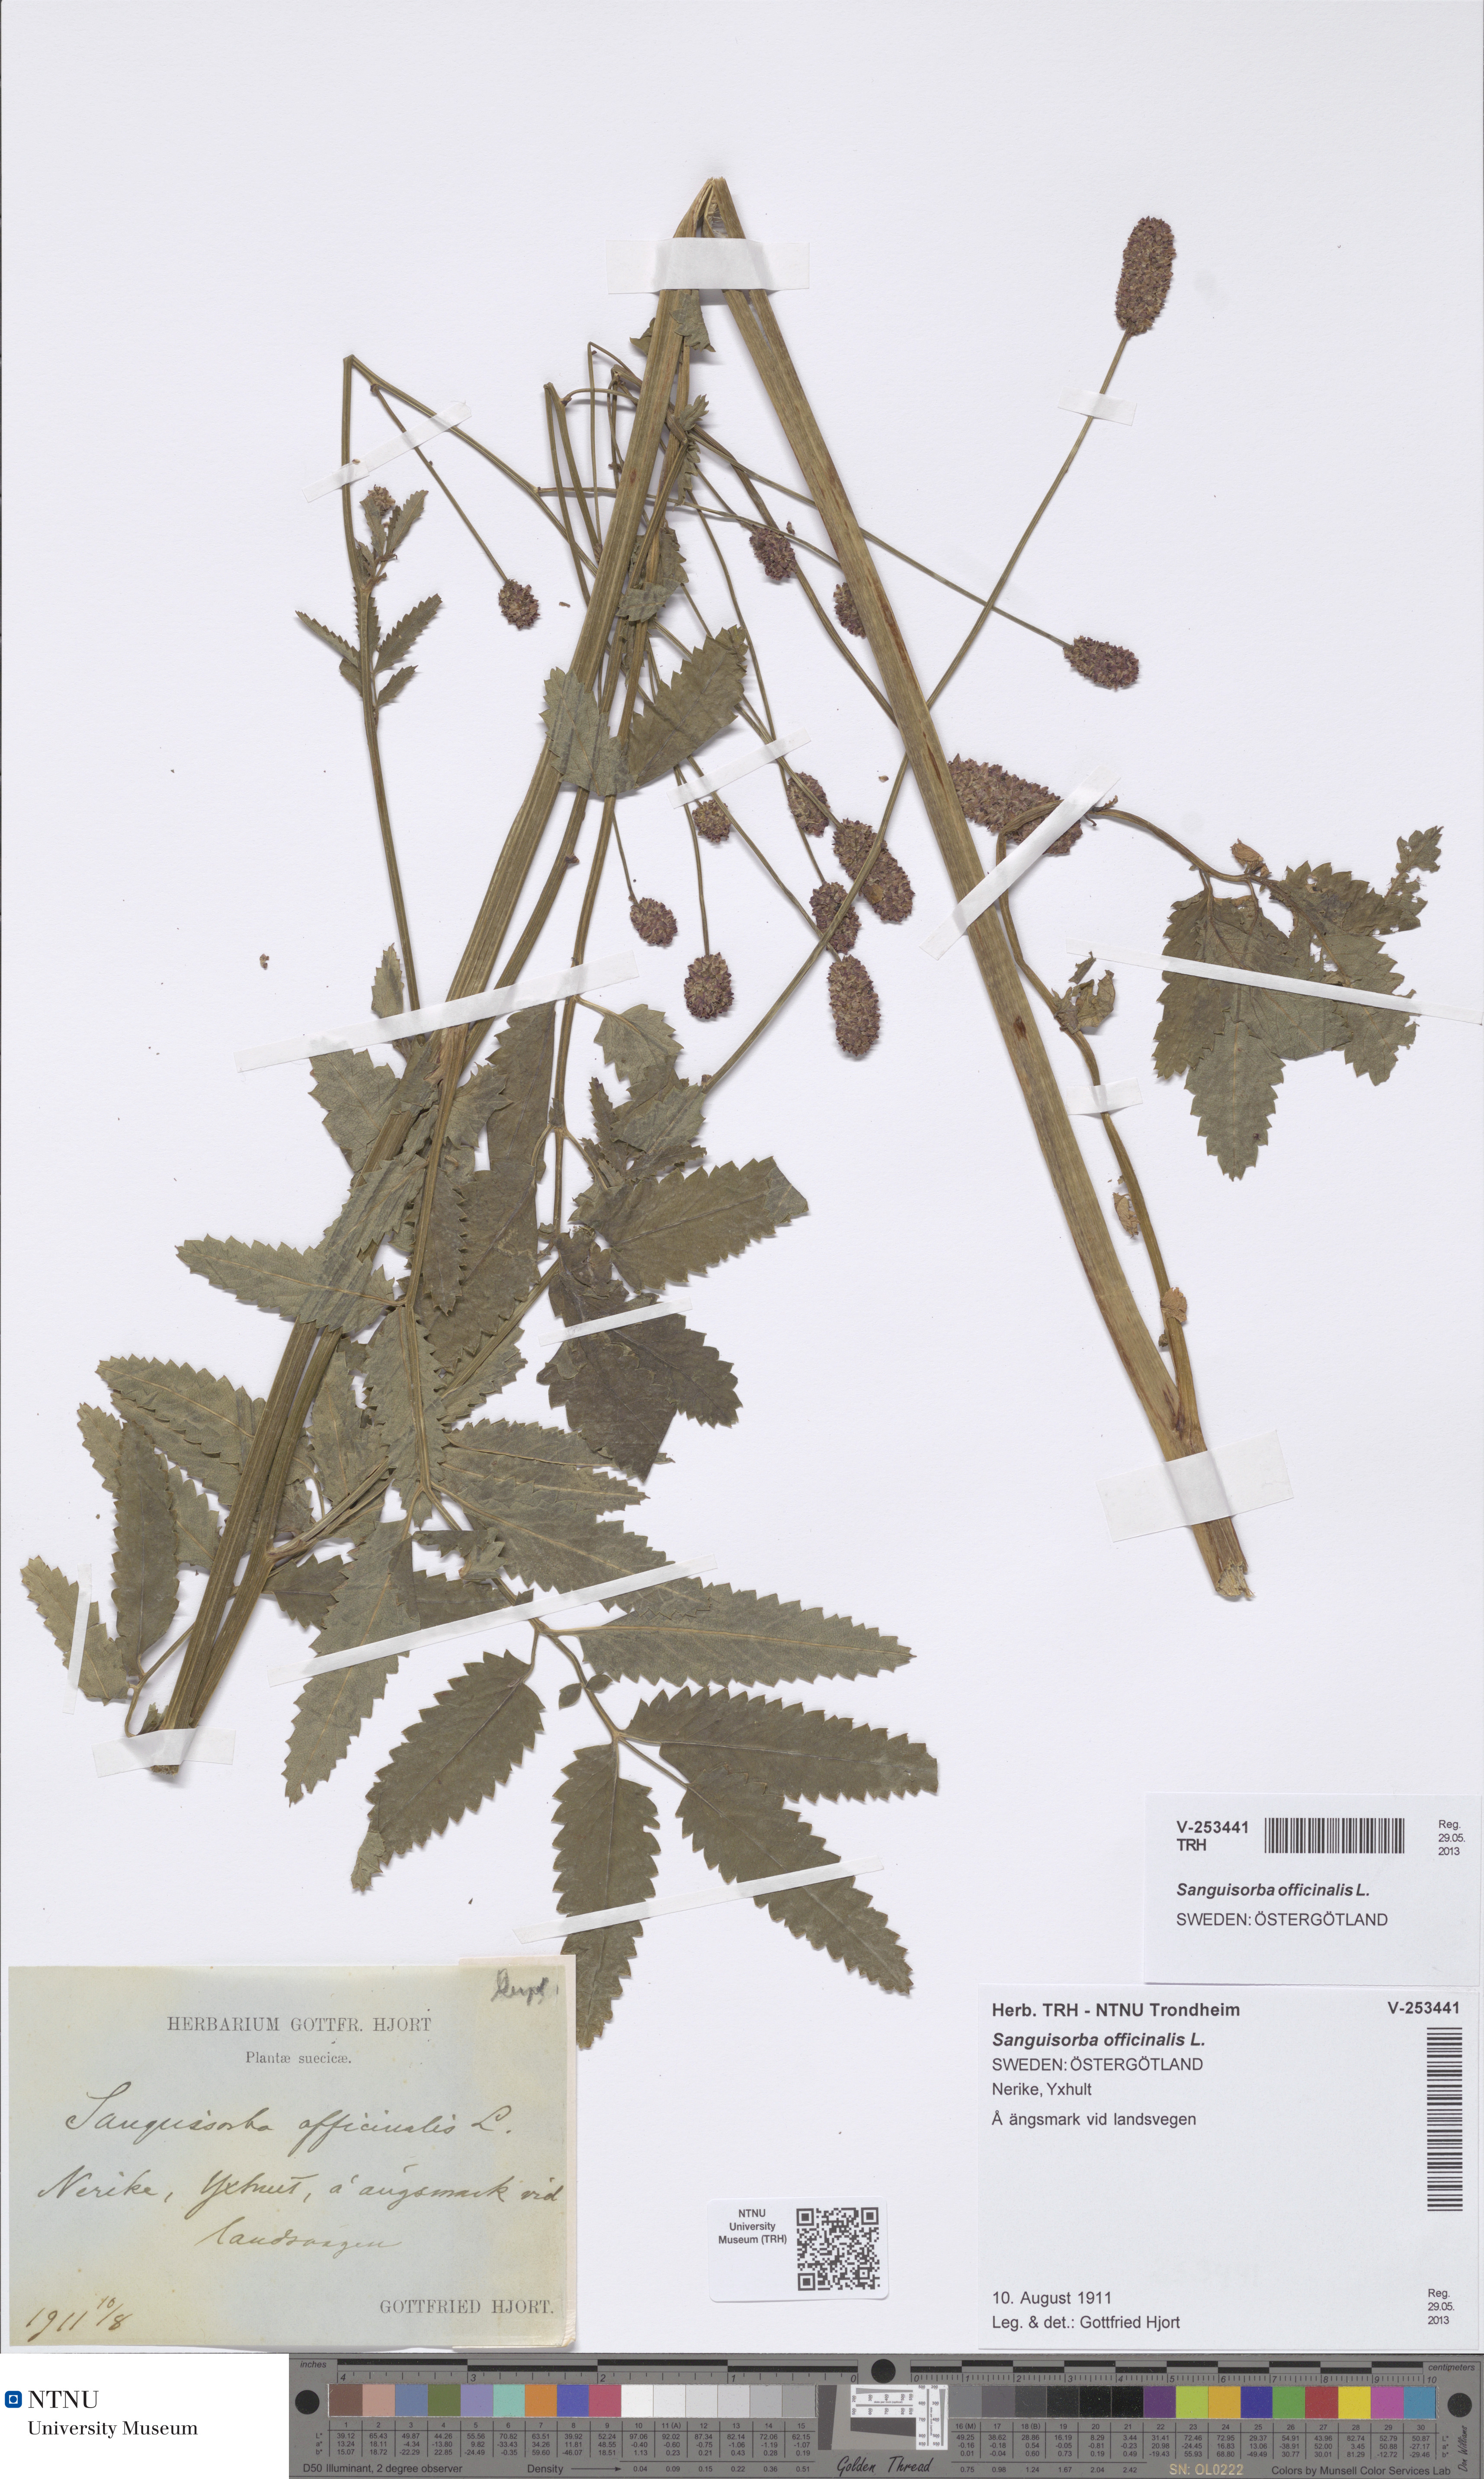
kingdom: Plantae
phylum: Tracheophyta
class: Magnoliopsida
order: Rosales
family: Rosaceae
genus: Sanguisorba
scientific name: Sanguisorba officinalis
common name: Great burnet
